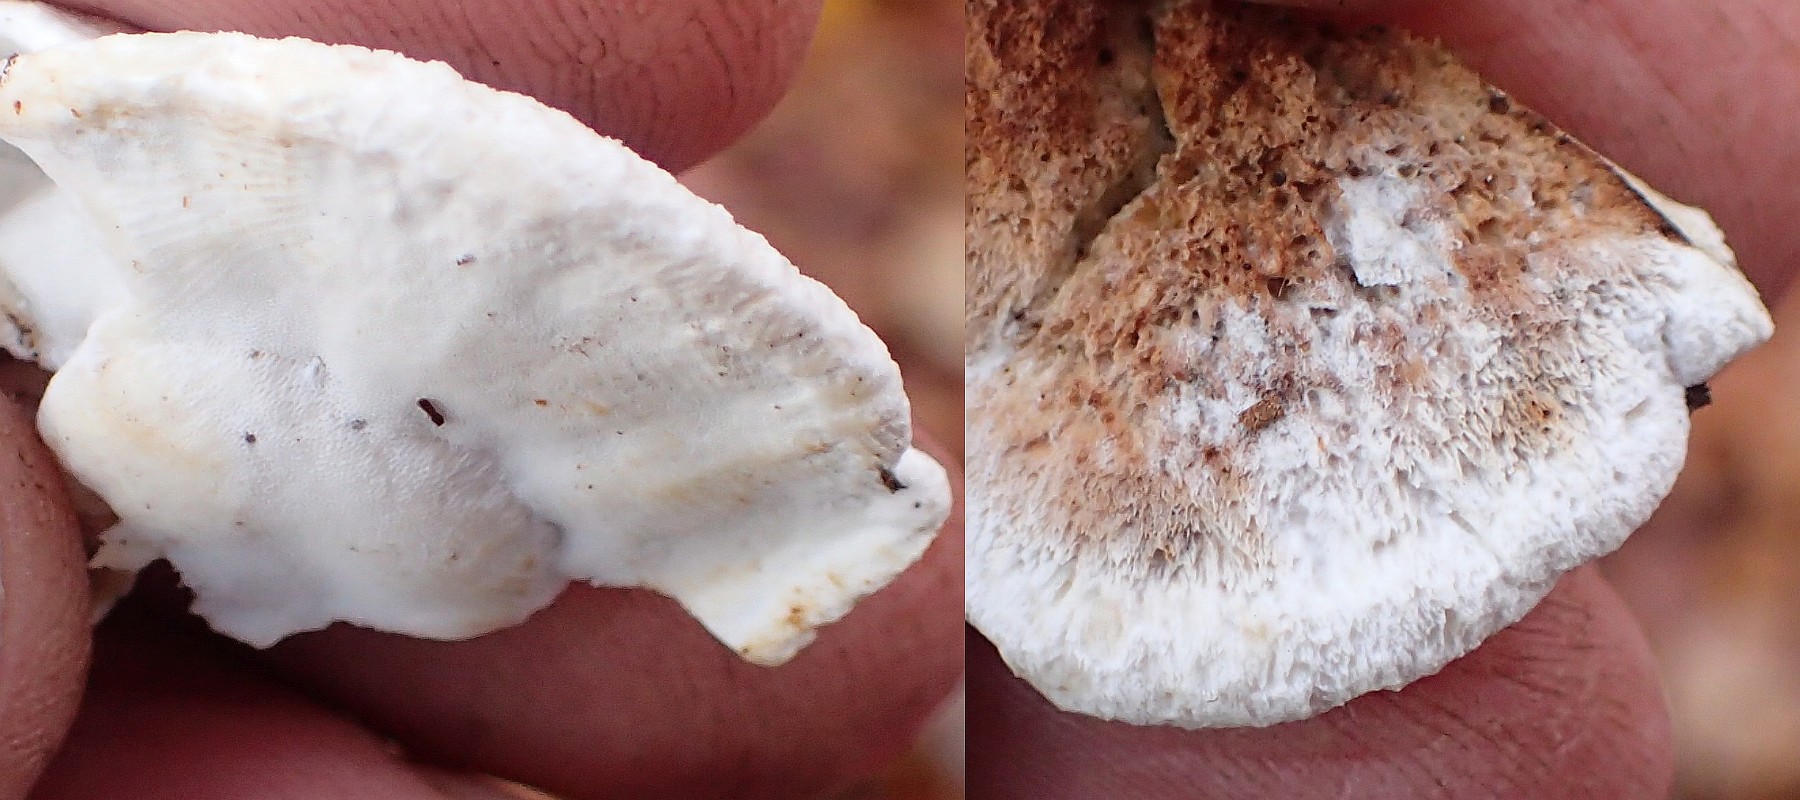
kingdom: Fungi
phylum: Basidiomycota
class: Agaricomycetes
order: Polyporales
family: Incrustoporiaceae
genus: Skeletocutis
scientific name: Skeletocutis nemoralis
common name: stor krystalporesvamp
